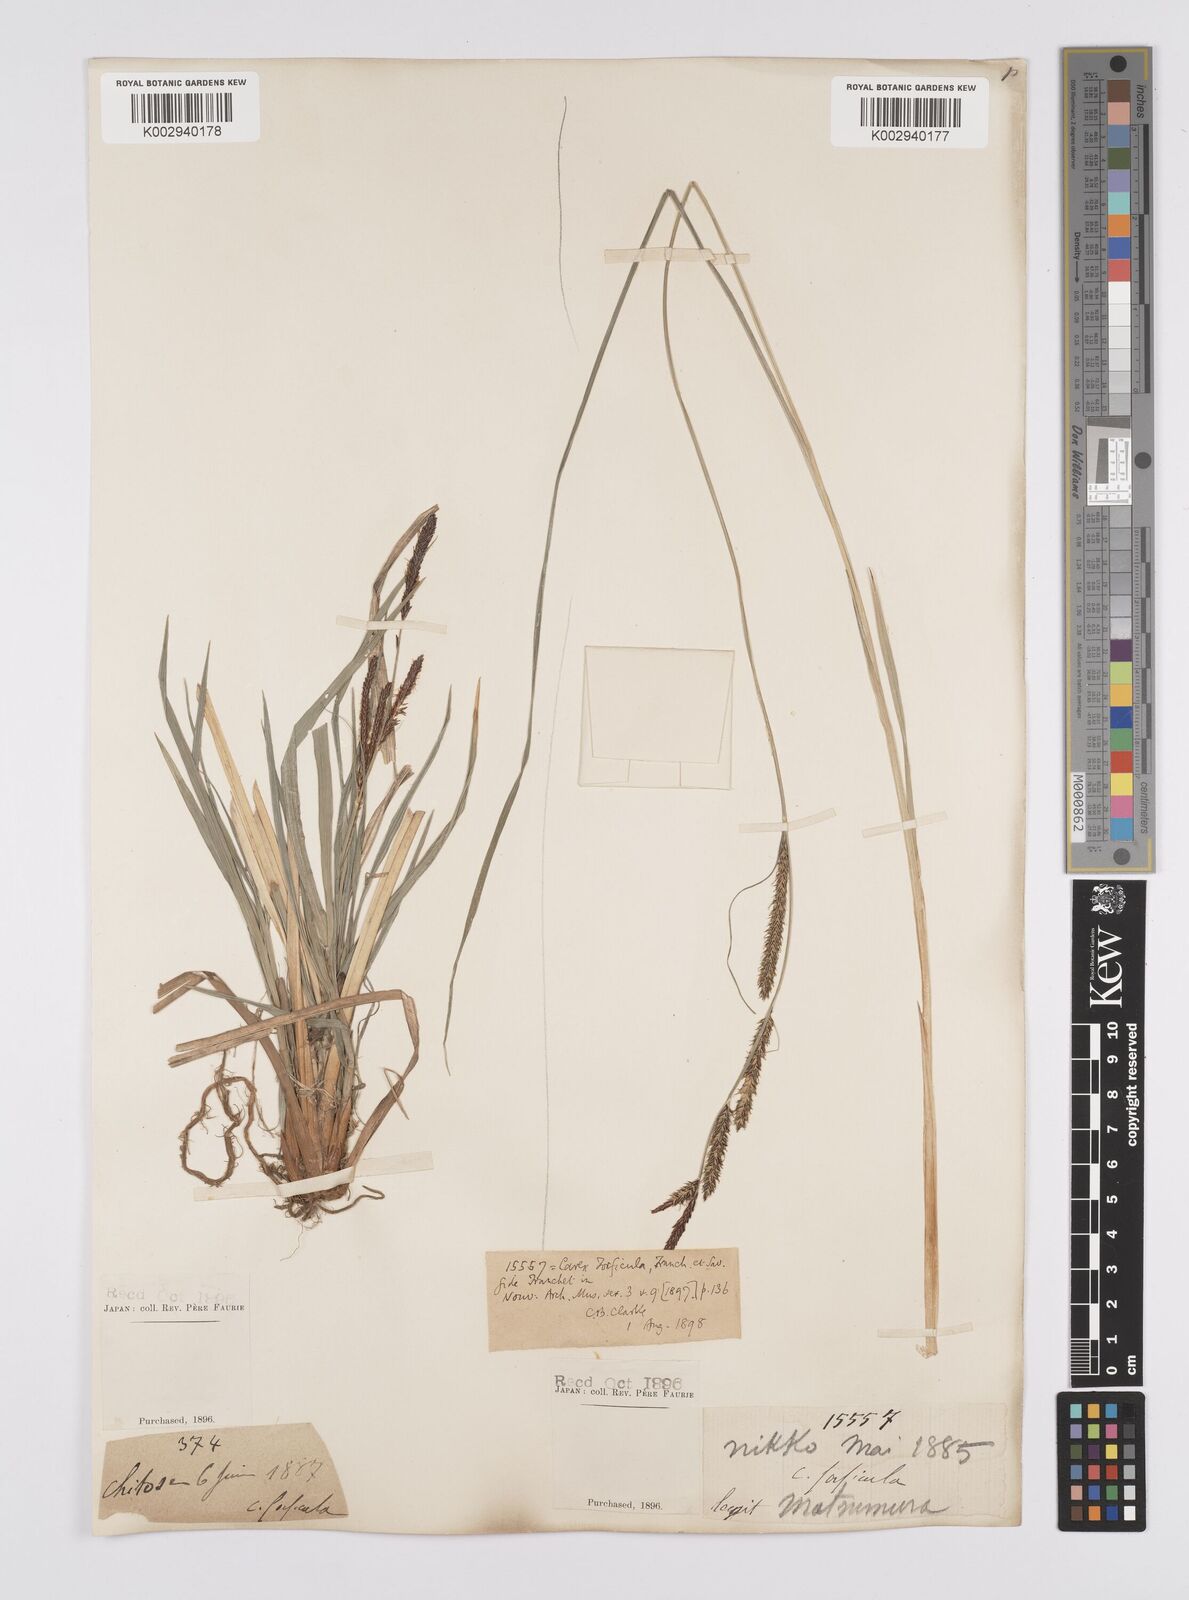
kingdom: Plantae
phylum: Tracheophyta
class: Liliopsida
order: Poales
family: Cyperaceae
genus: Carex
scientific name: Carex forficula
